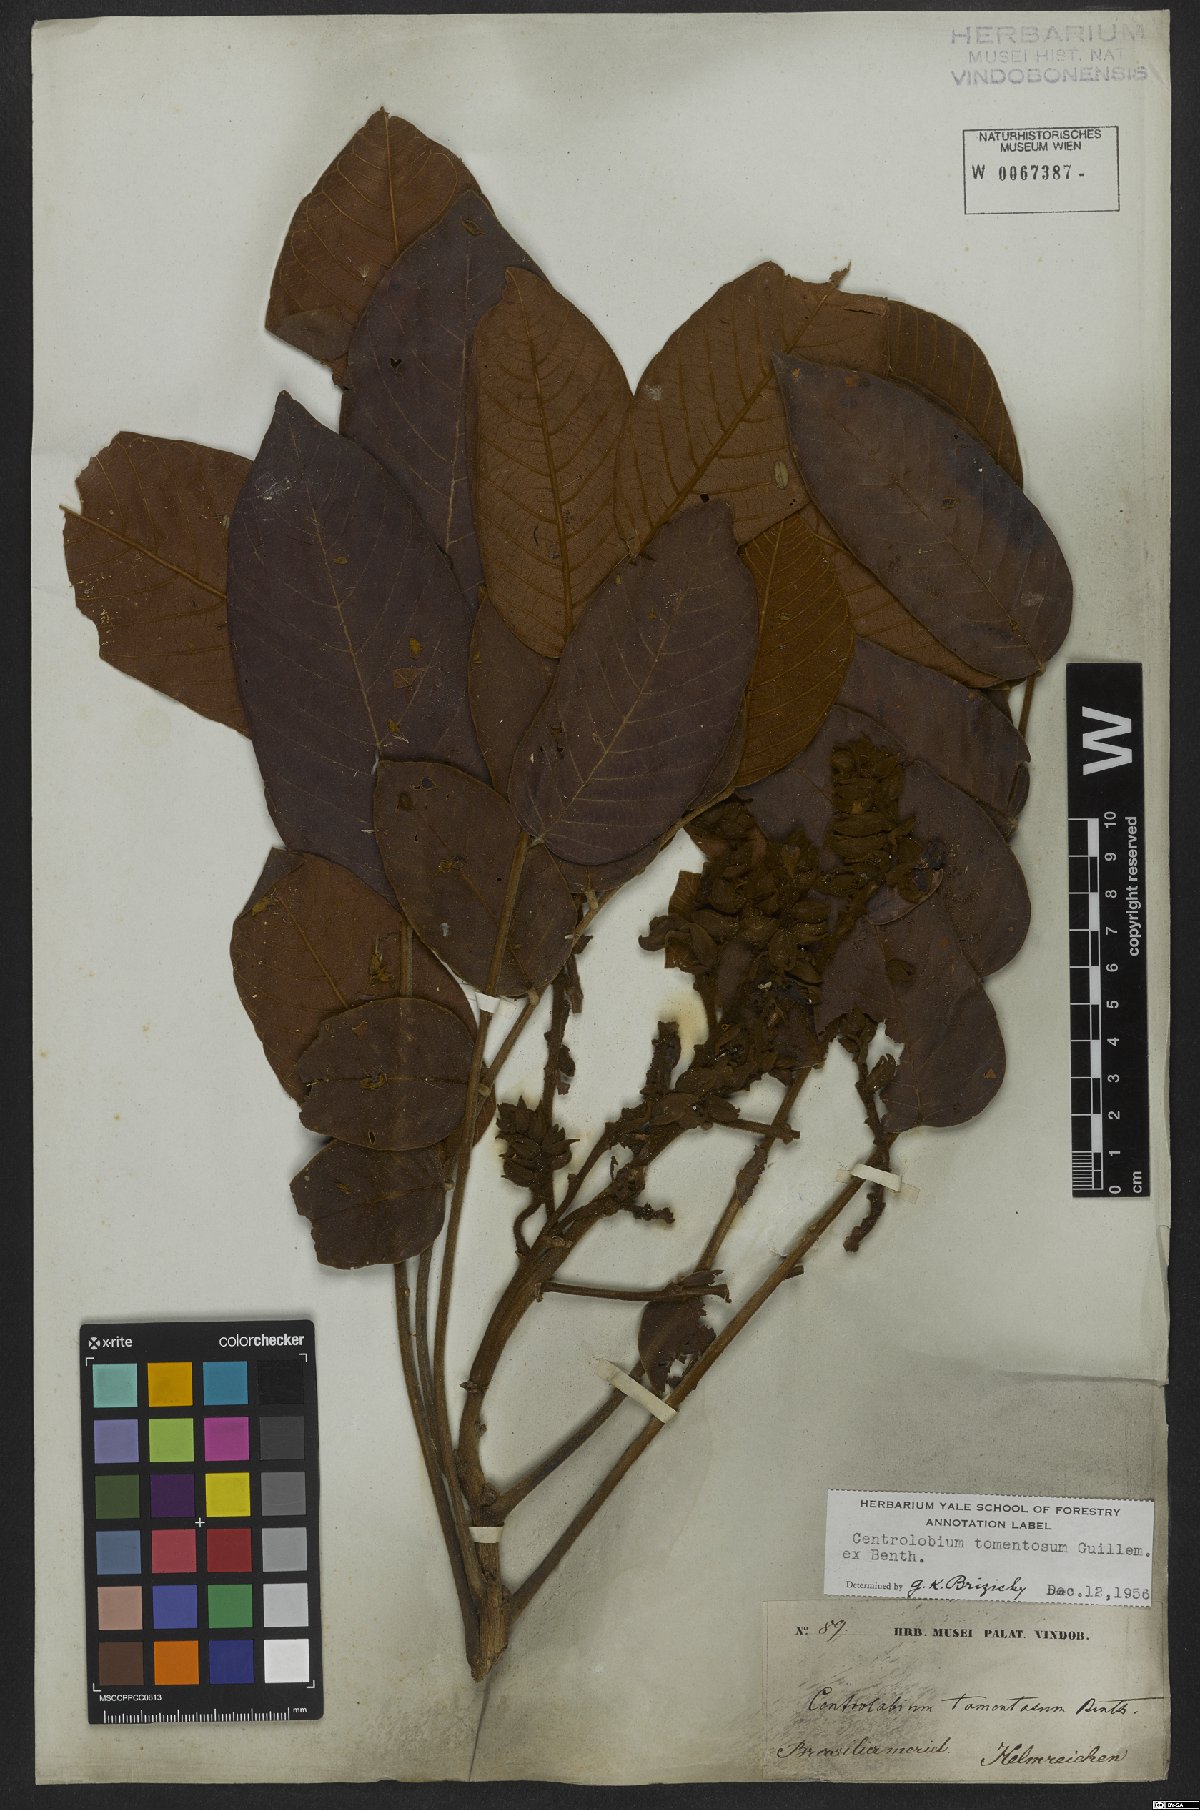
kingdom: Plantae
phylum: Tracheophyta
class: Magnoliopsida
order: Fabales
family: Fabaceae
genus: Centrolobium
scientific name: Centrolobium tomentosum
